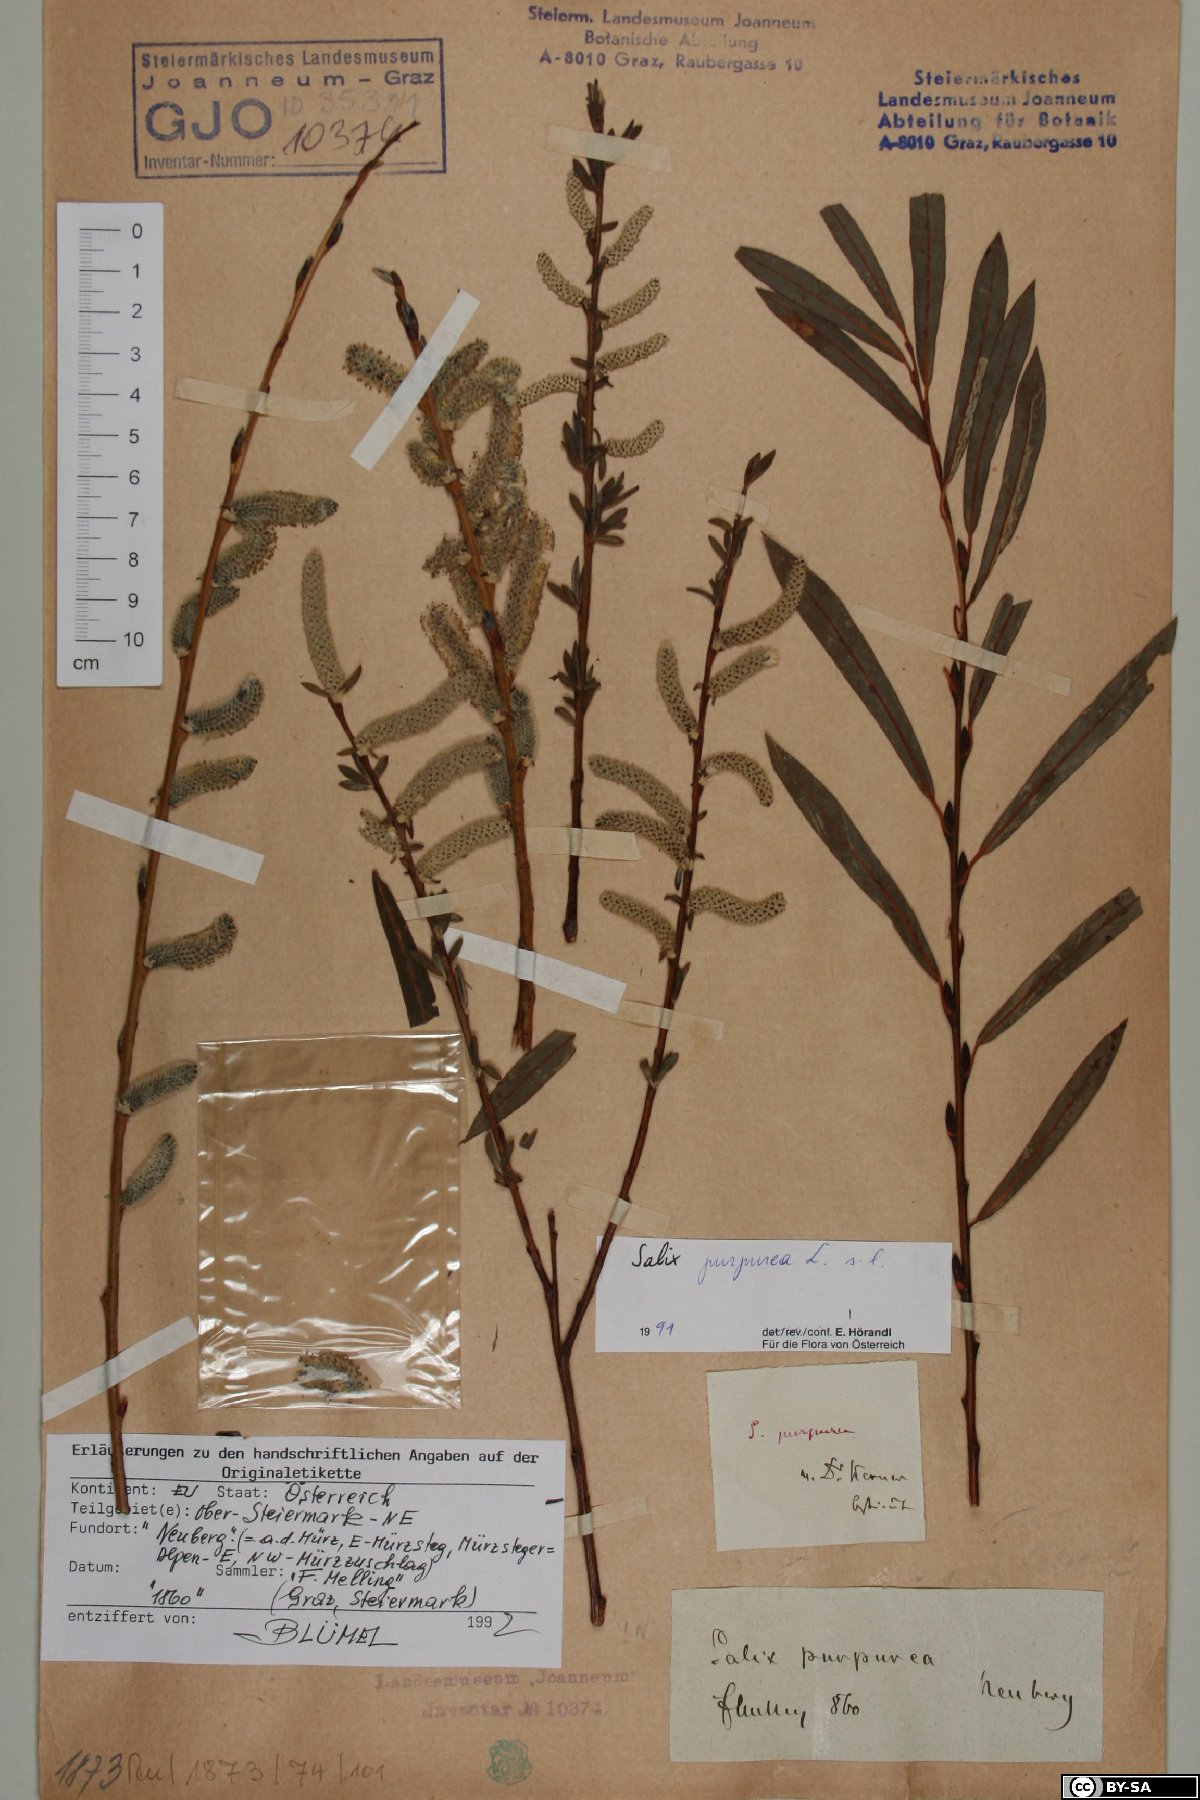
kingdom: Plantae
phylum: Tracheophyta
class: Magnoliopsida
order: Malpighiales
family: Salicaceae
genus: Salix
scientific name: Salix purpurea
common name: Purple willow
